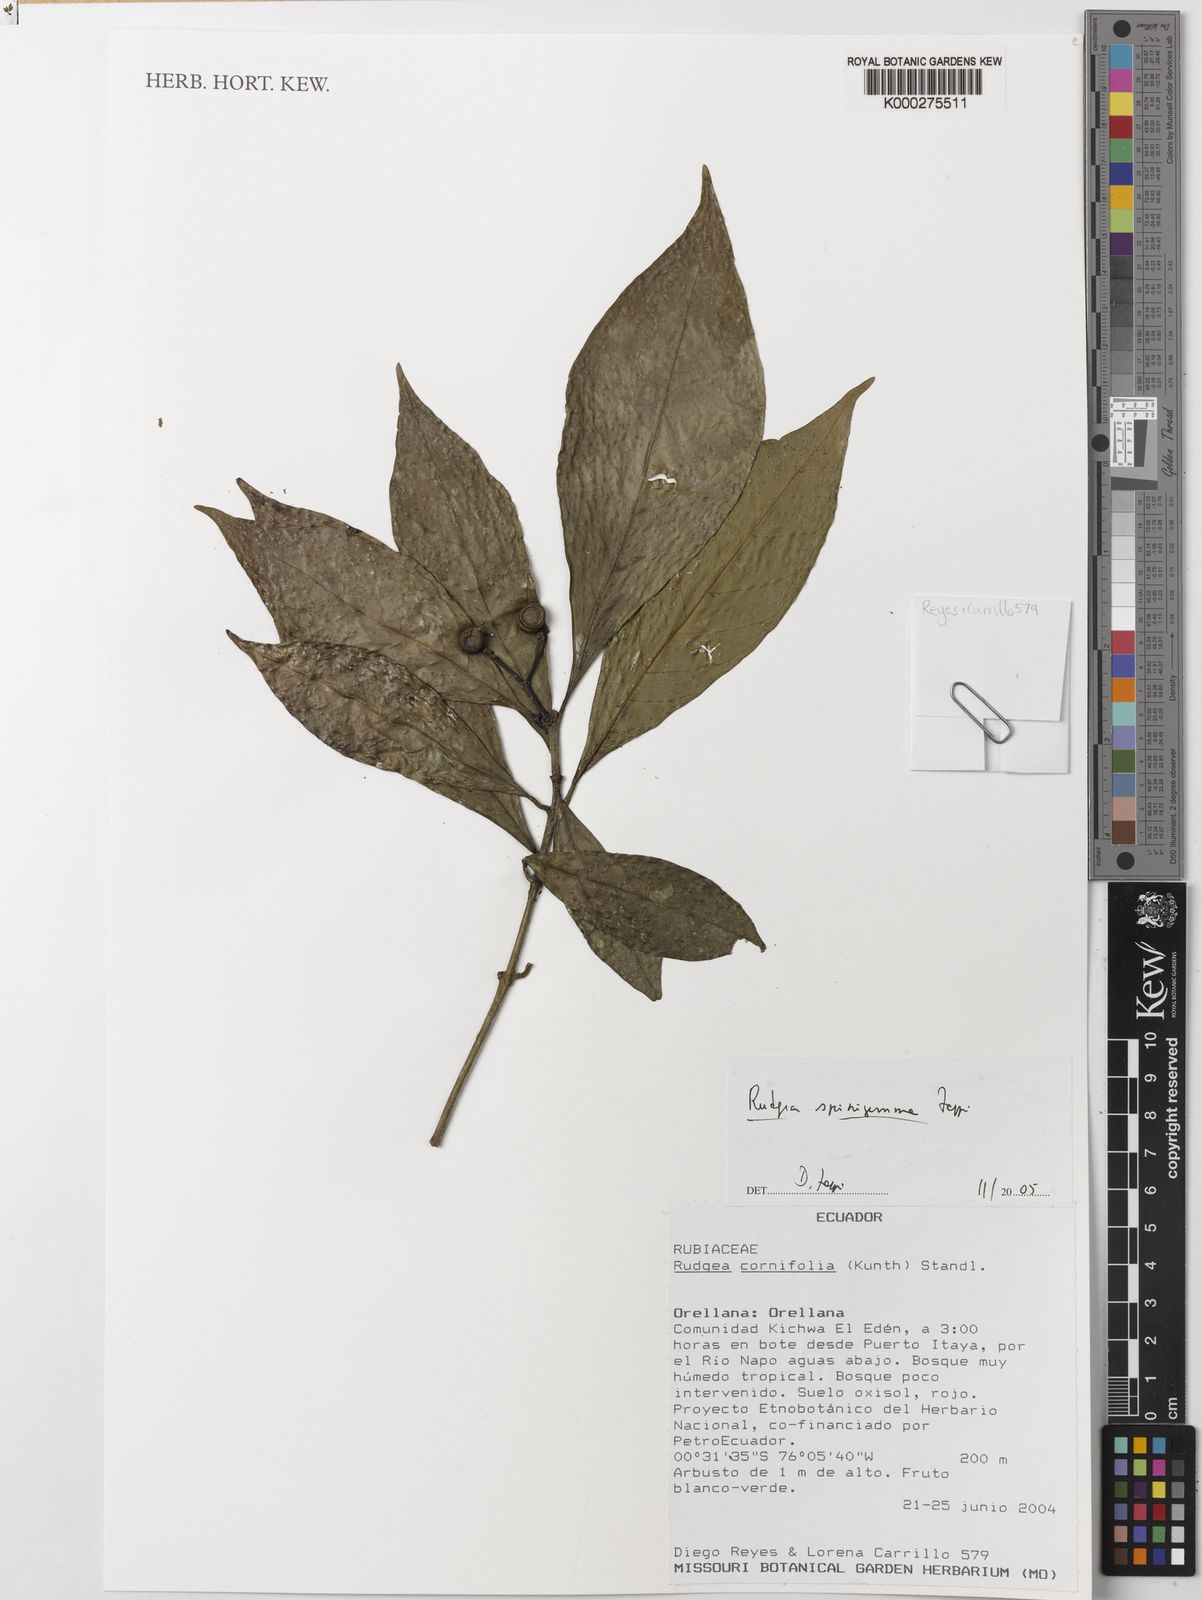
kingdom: Plantae
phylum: Tracheophyta
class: Magnoliopsida
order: Gentianales
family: Rubiaceae
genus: Rudgea
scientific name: Rudgea spinigemma
